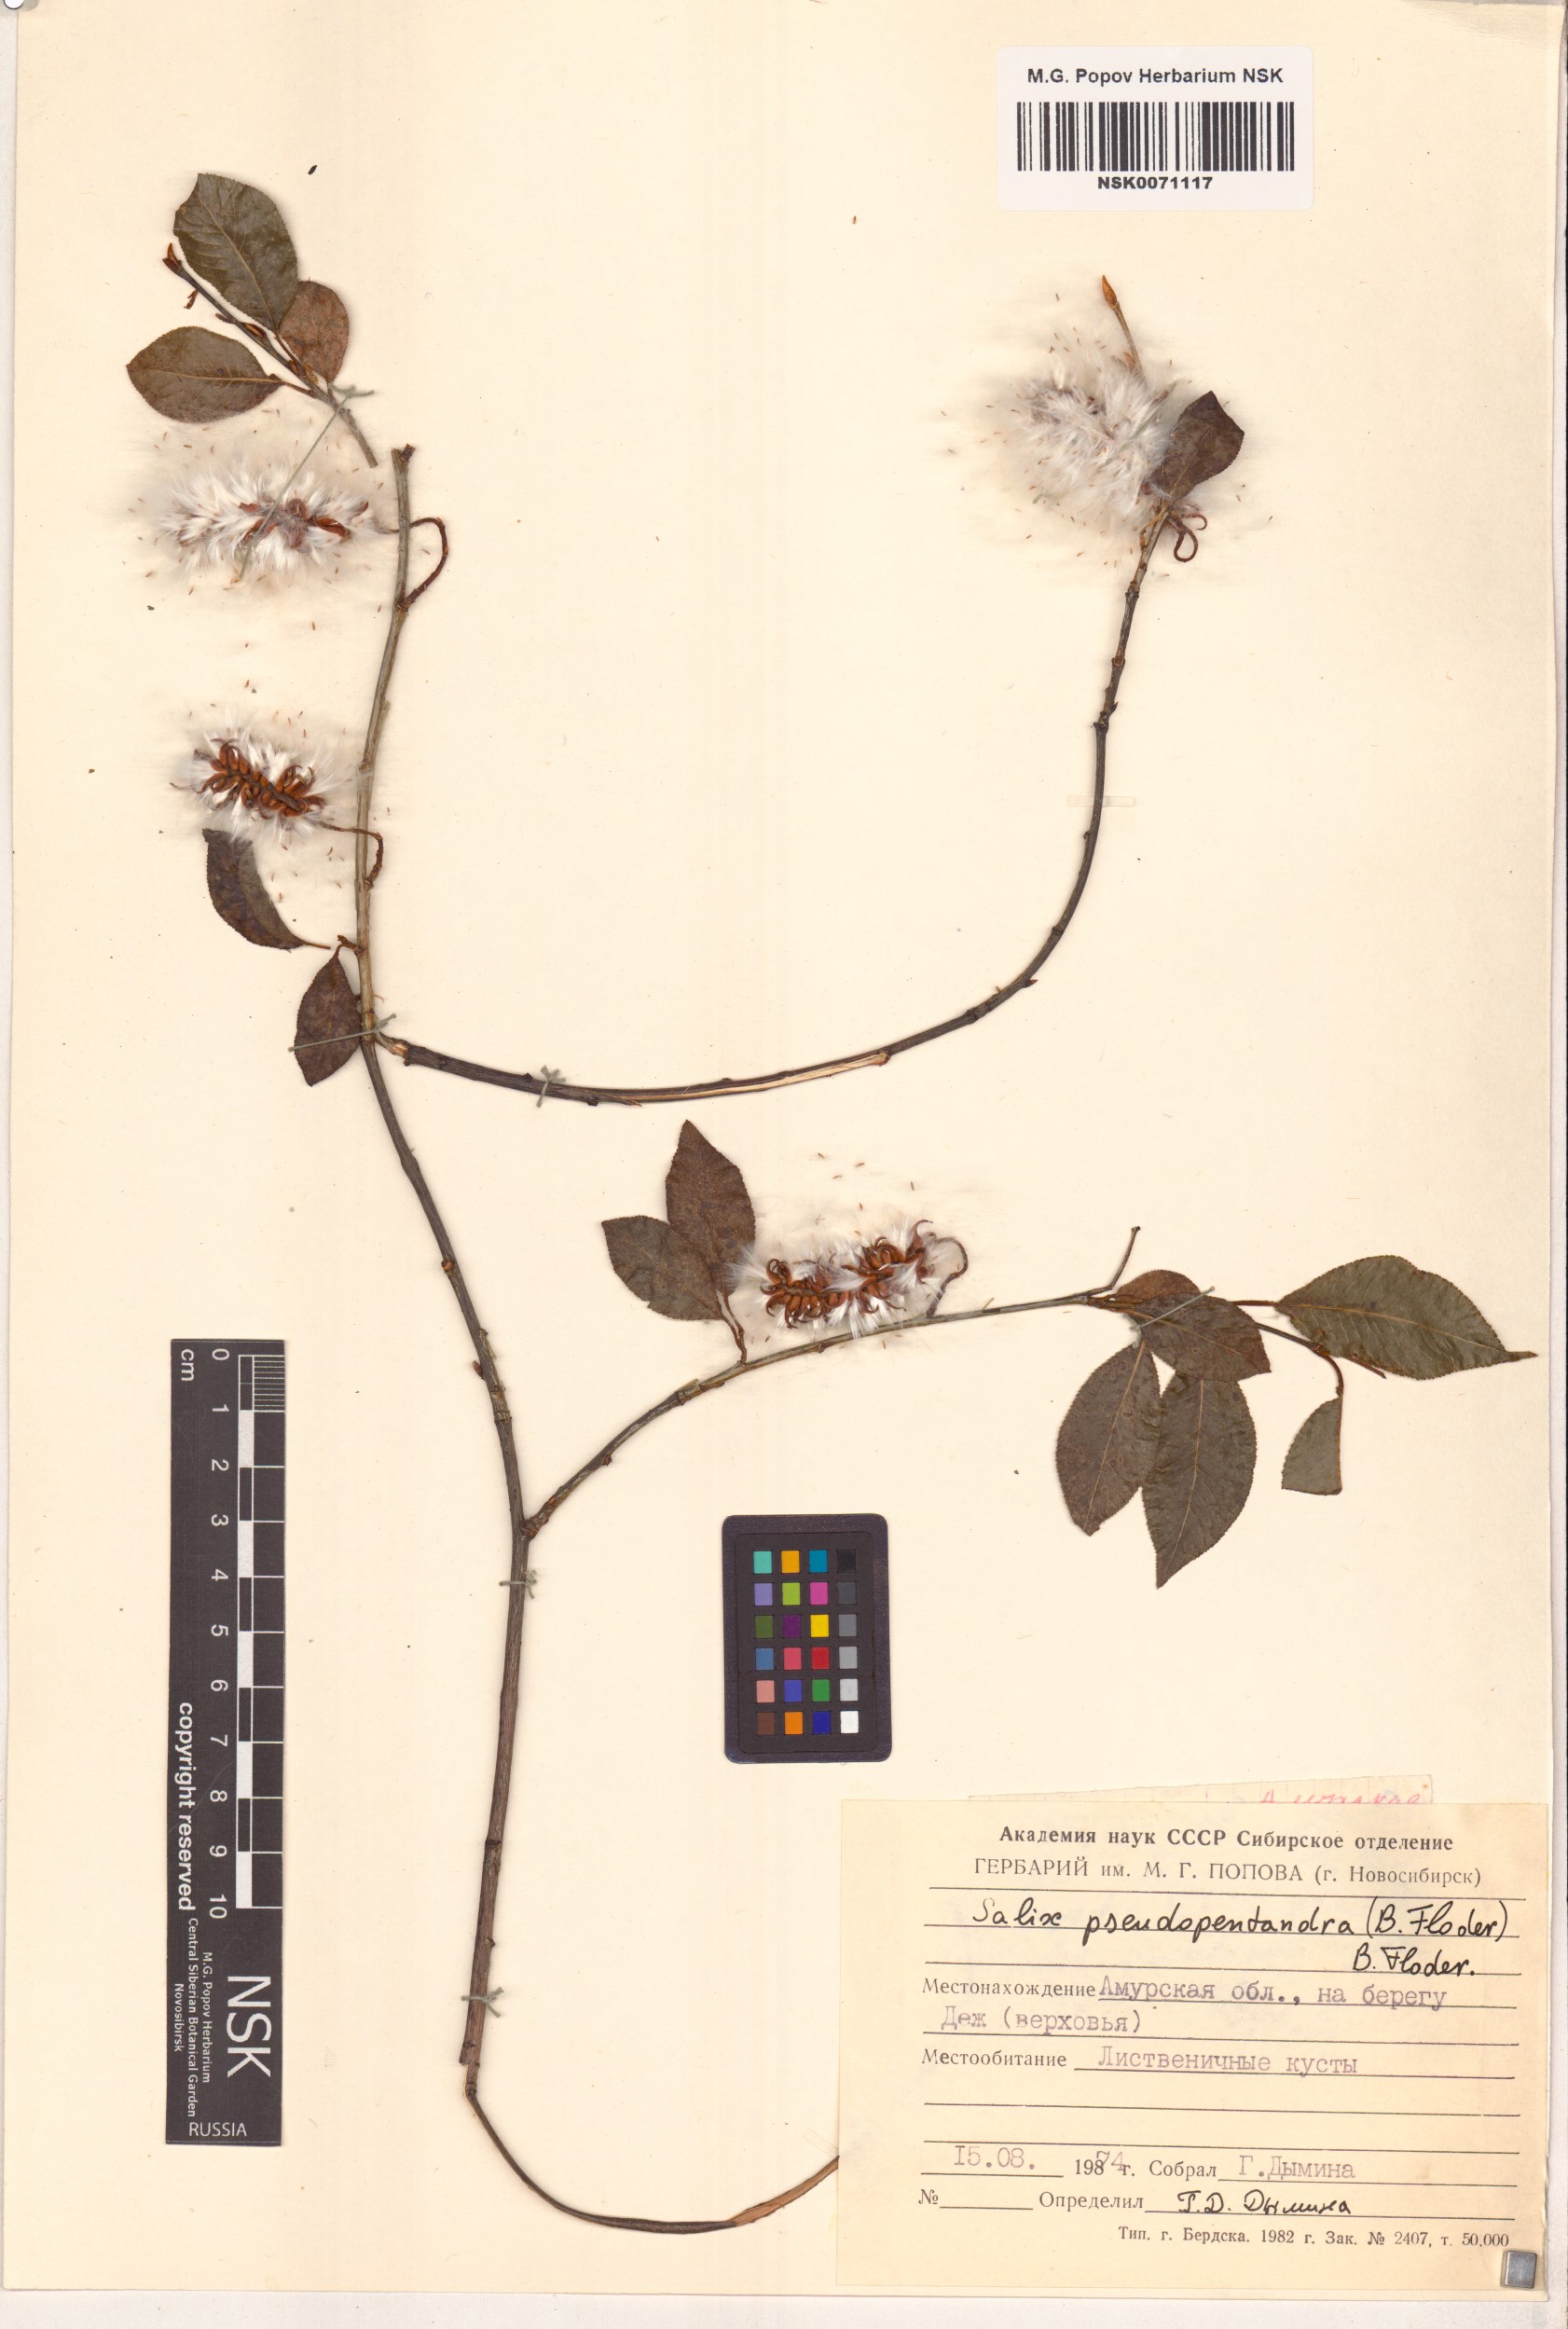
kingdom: Plantae
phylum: Tracheophyta
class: Magnoliopsida
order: Malpighiales
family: Salicaceae
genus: Salix
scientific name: Salix pseudopentandra
